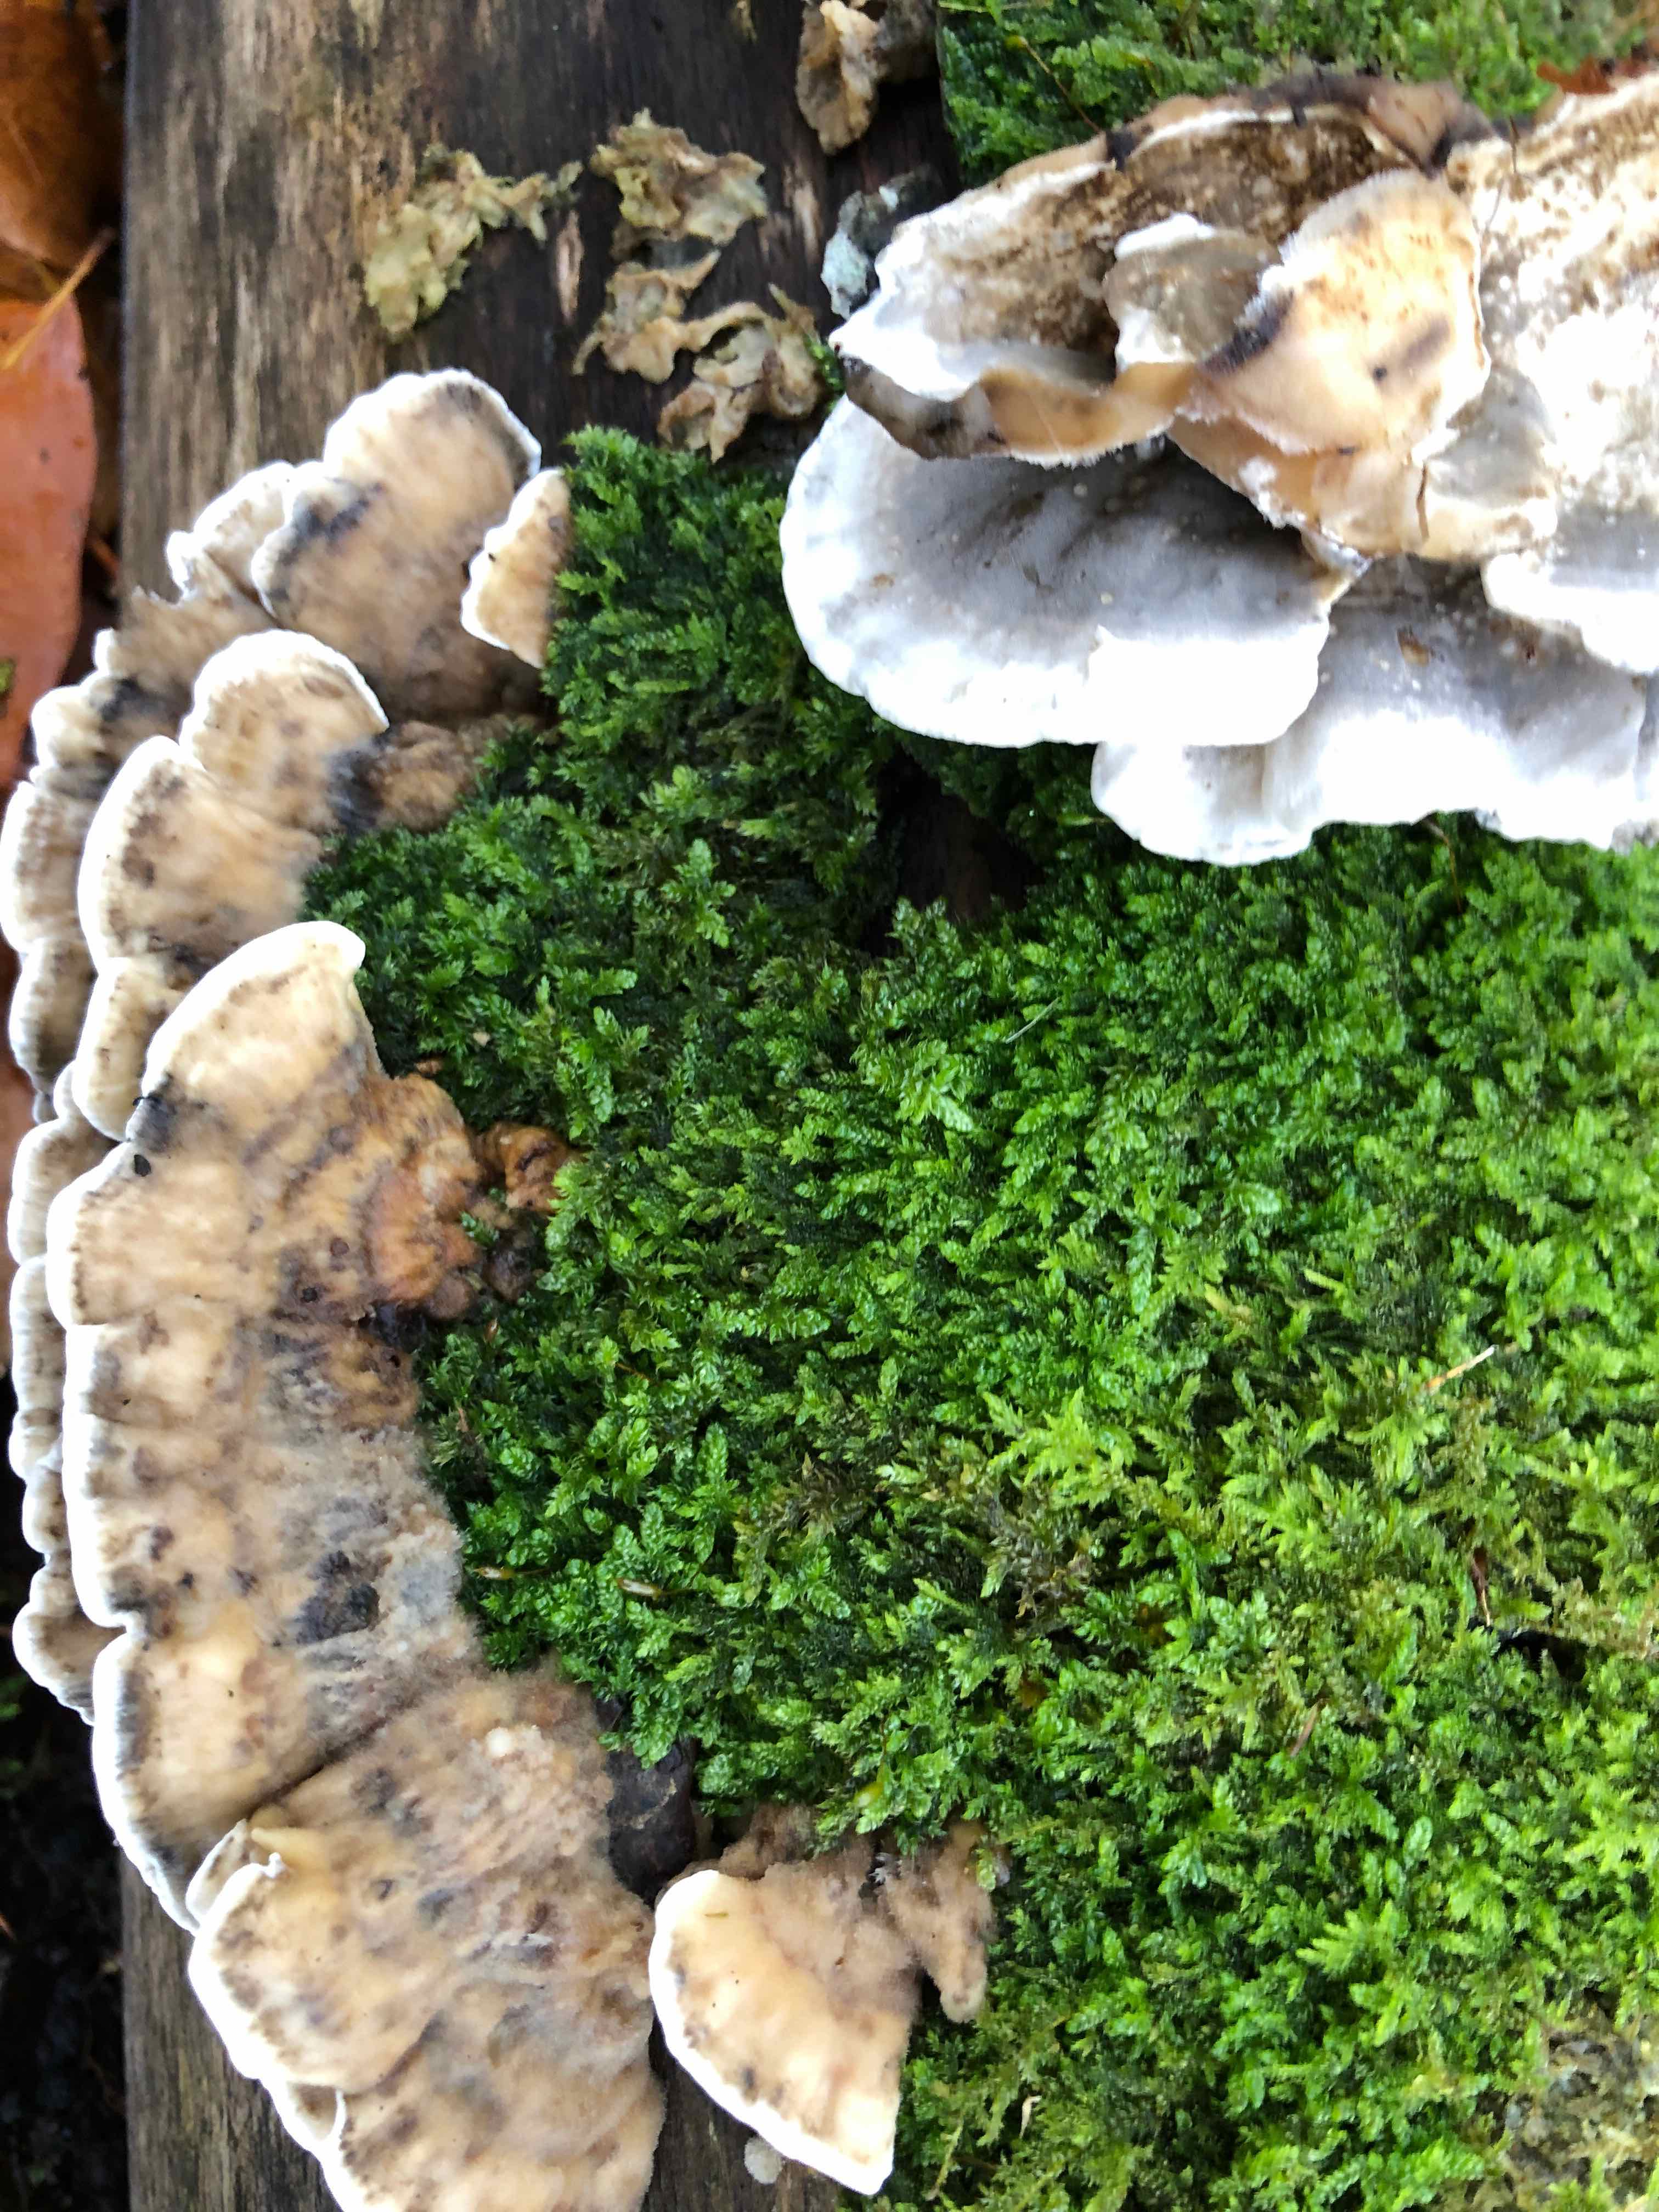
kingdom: Fungi
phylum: Basidiomycota
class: Agaricomycetes
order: Polyporales
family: Phanerochaetaceae
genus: Bjerkandera
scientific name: Bjerkandera adusta
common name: sveden sodporesvamp
